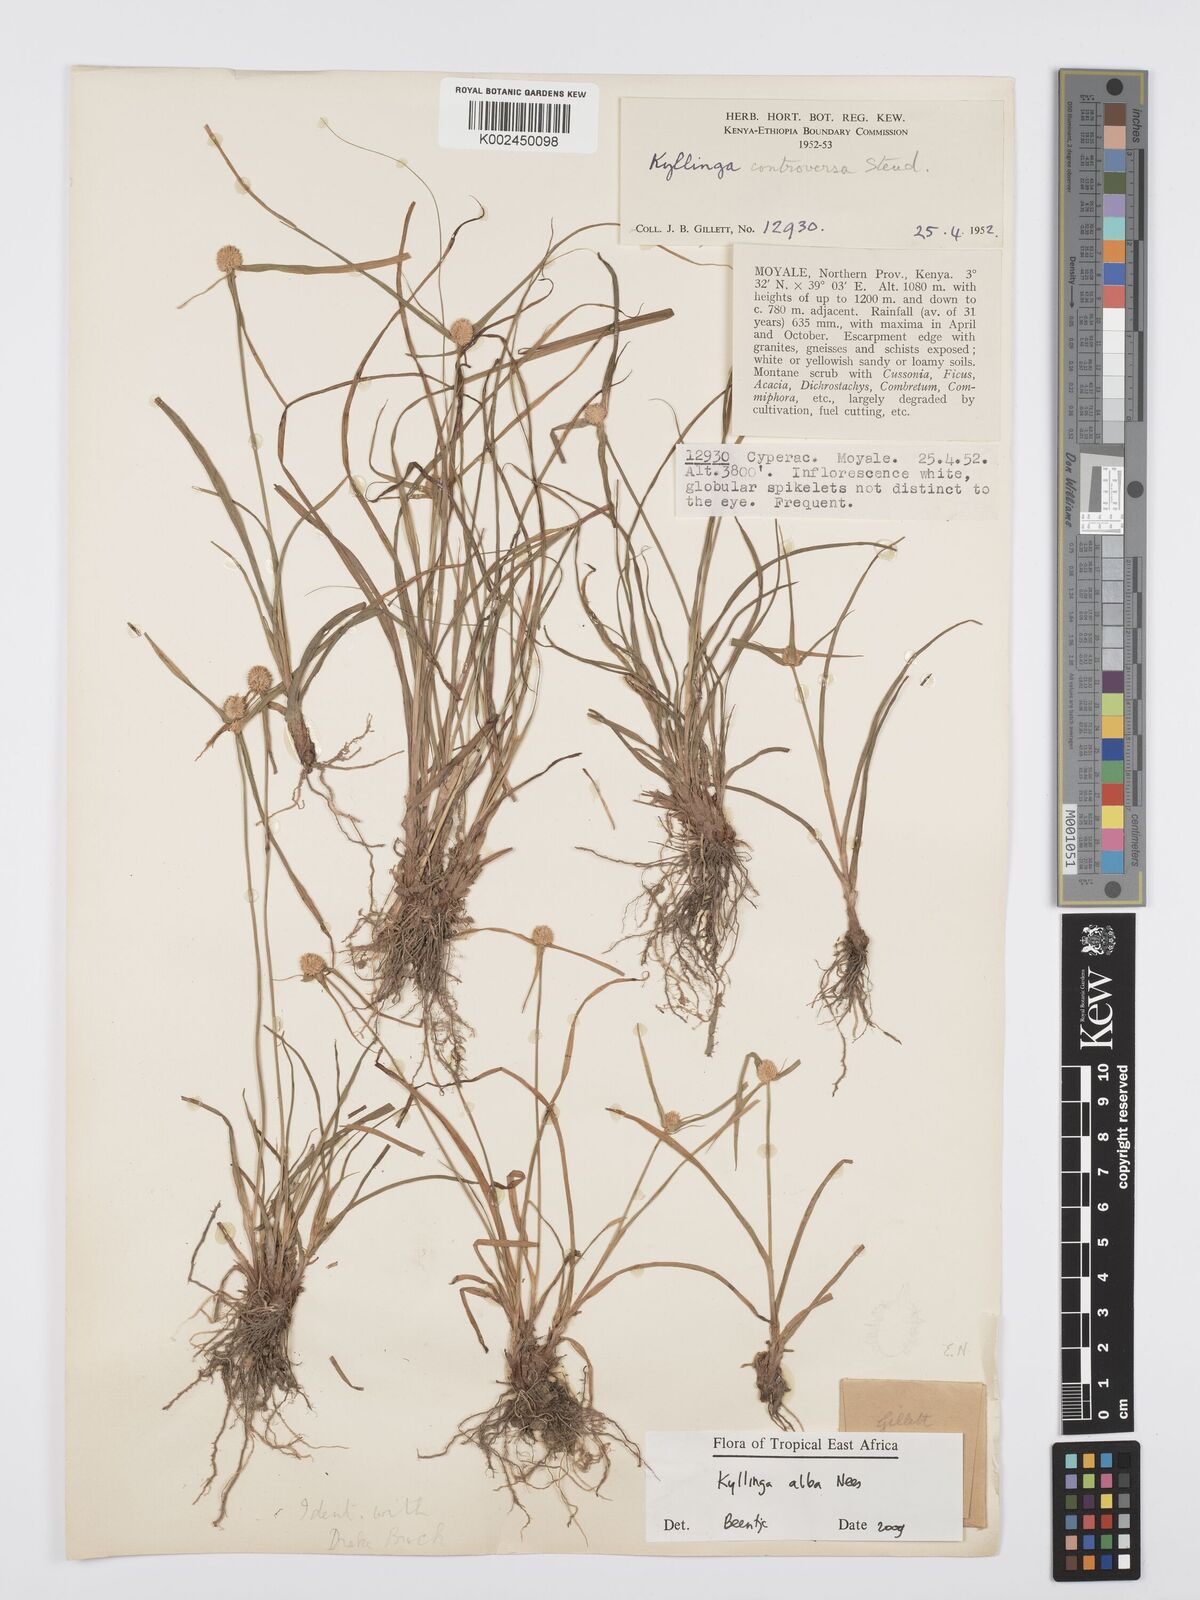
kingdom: Plantae
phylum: Tracheophyta
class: Liliopsida
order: Poales
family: Cyperaceae
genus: Cyperus
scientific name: Cyperus
